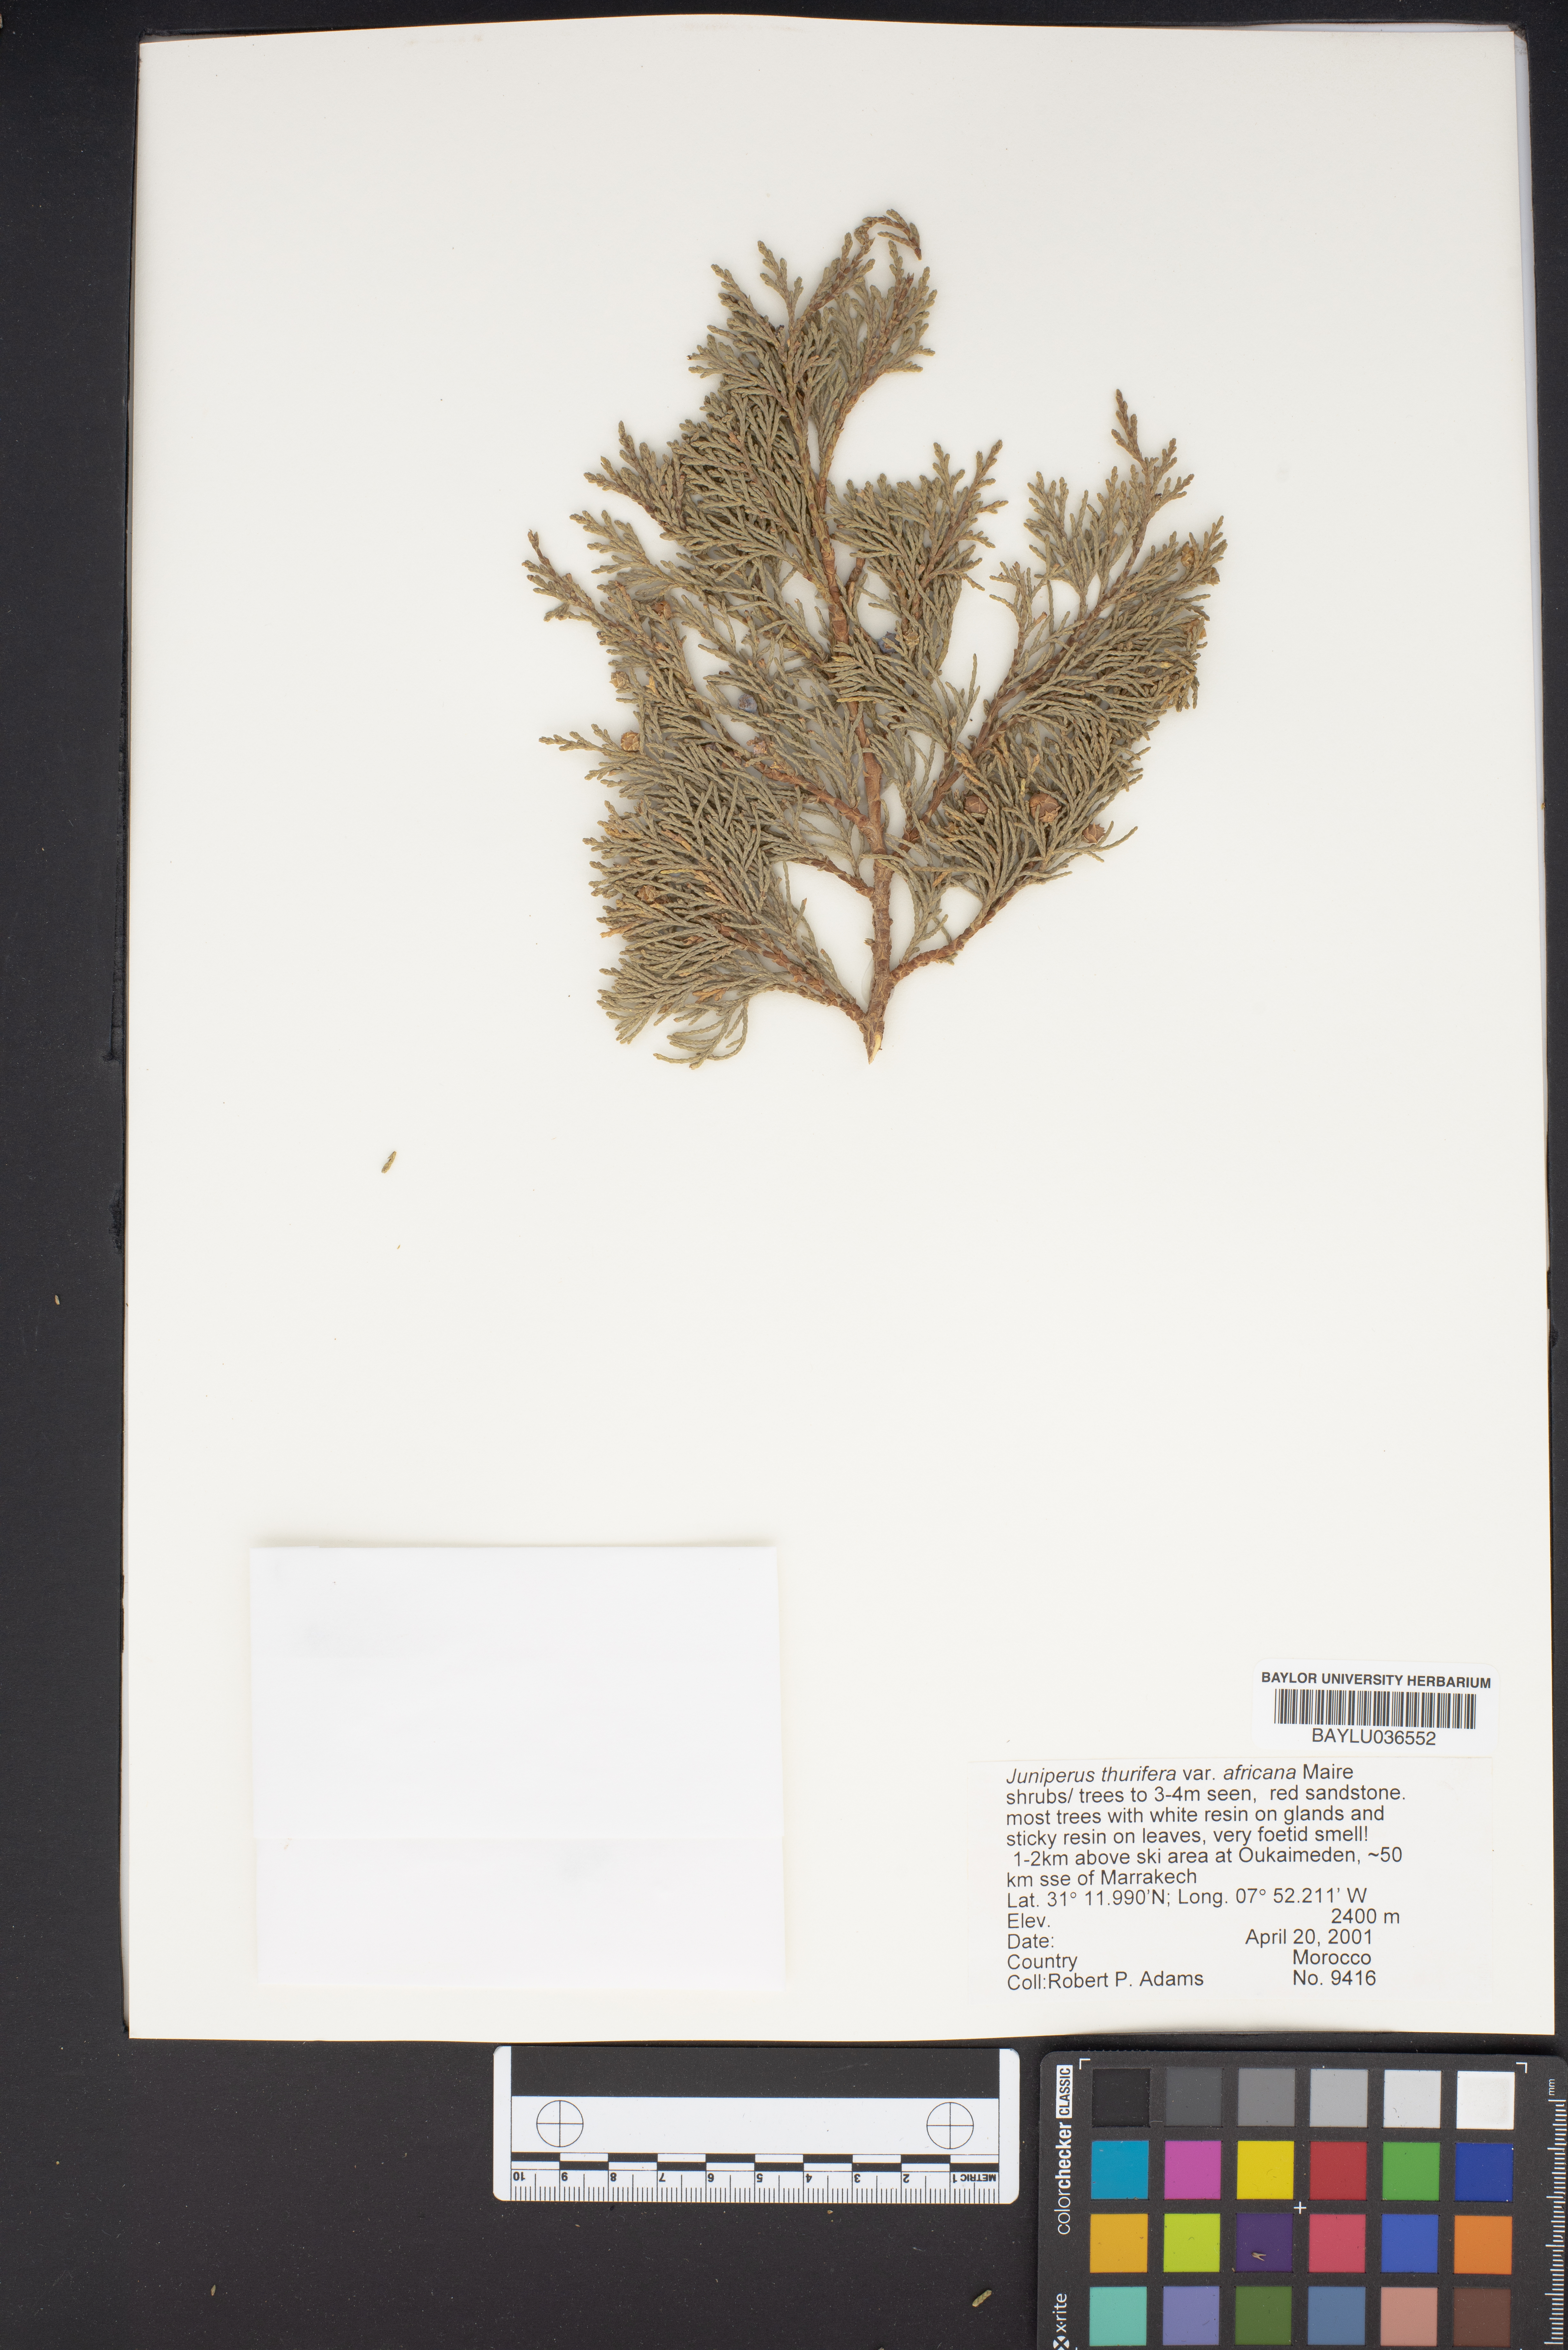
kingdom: Plantae
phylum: Tracheophyta
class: Pinopsida
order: Pinales
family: Cupressaceae
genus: Juniperus
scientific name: Juniperus thurifera
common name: Incense juniper
